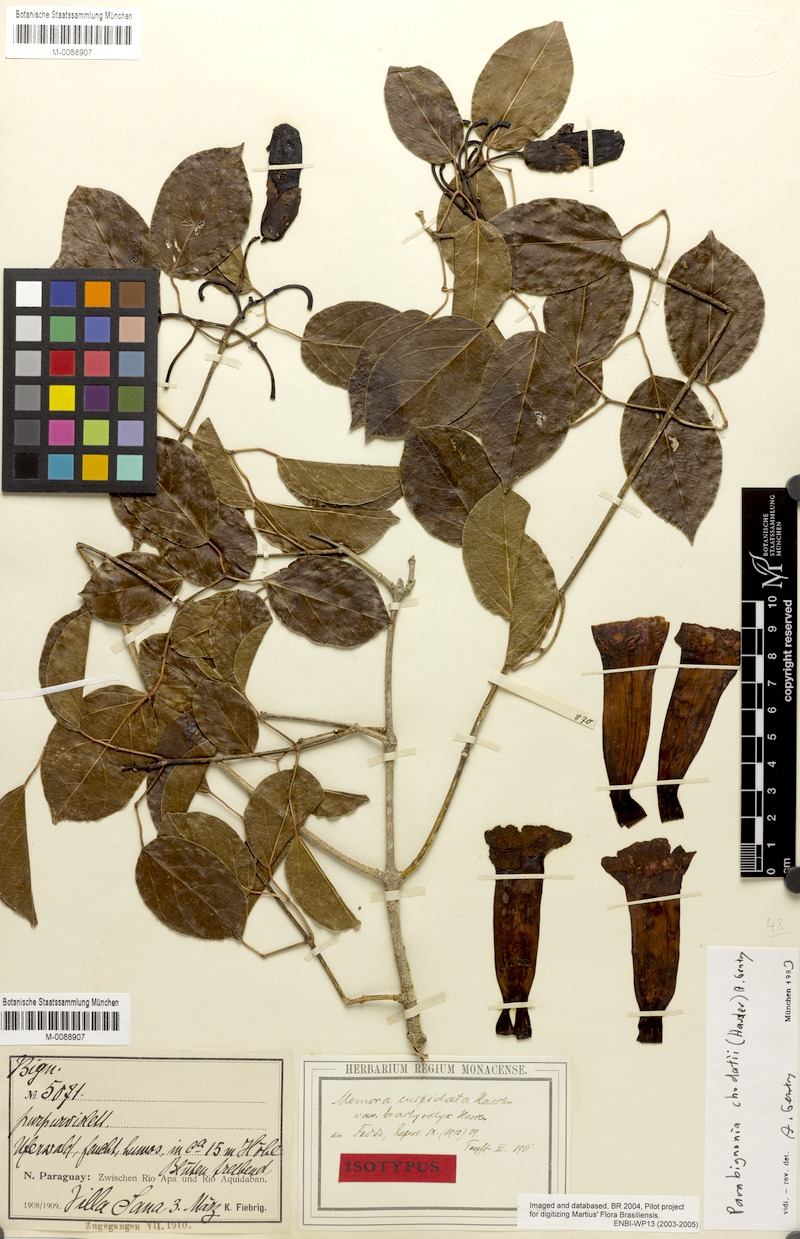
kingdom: Plantae
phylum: Tracheophyta
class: Magnoliopsida
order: Lamiales
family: Bignoniaceae
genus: Dolichandra
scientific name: Dolichandra chodatii
